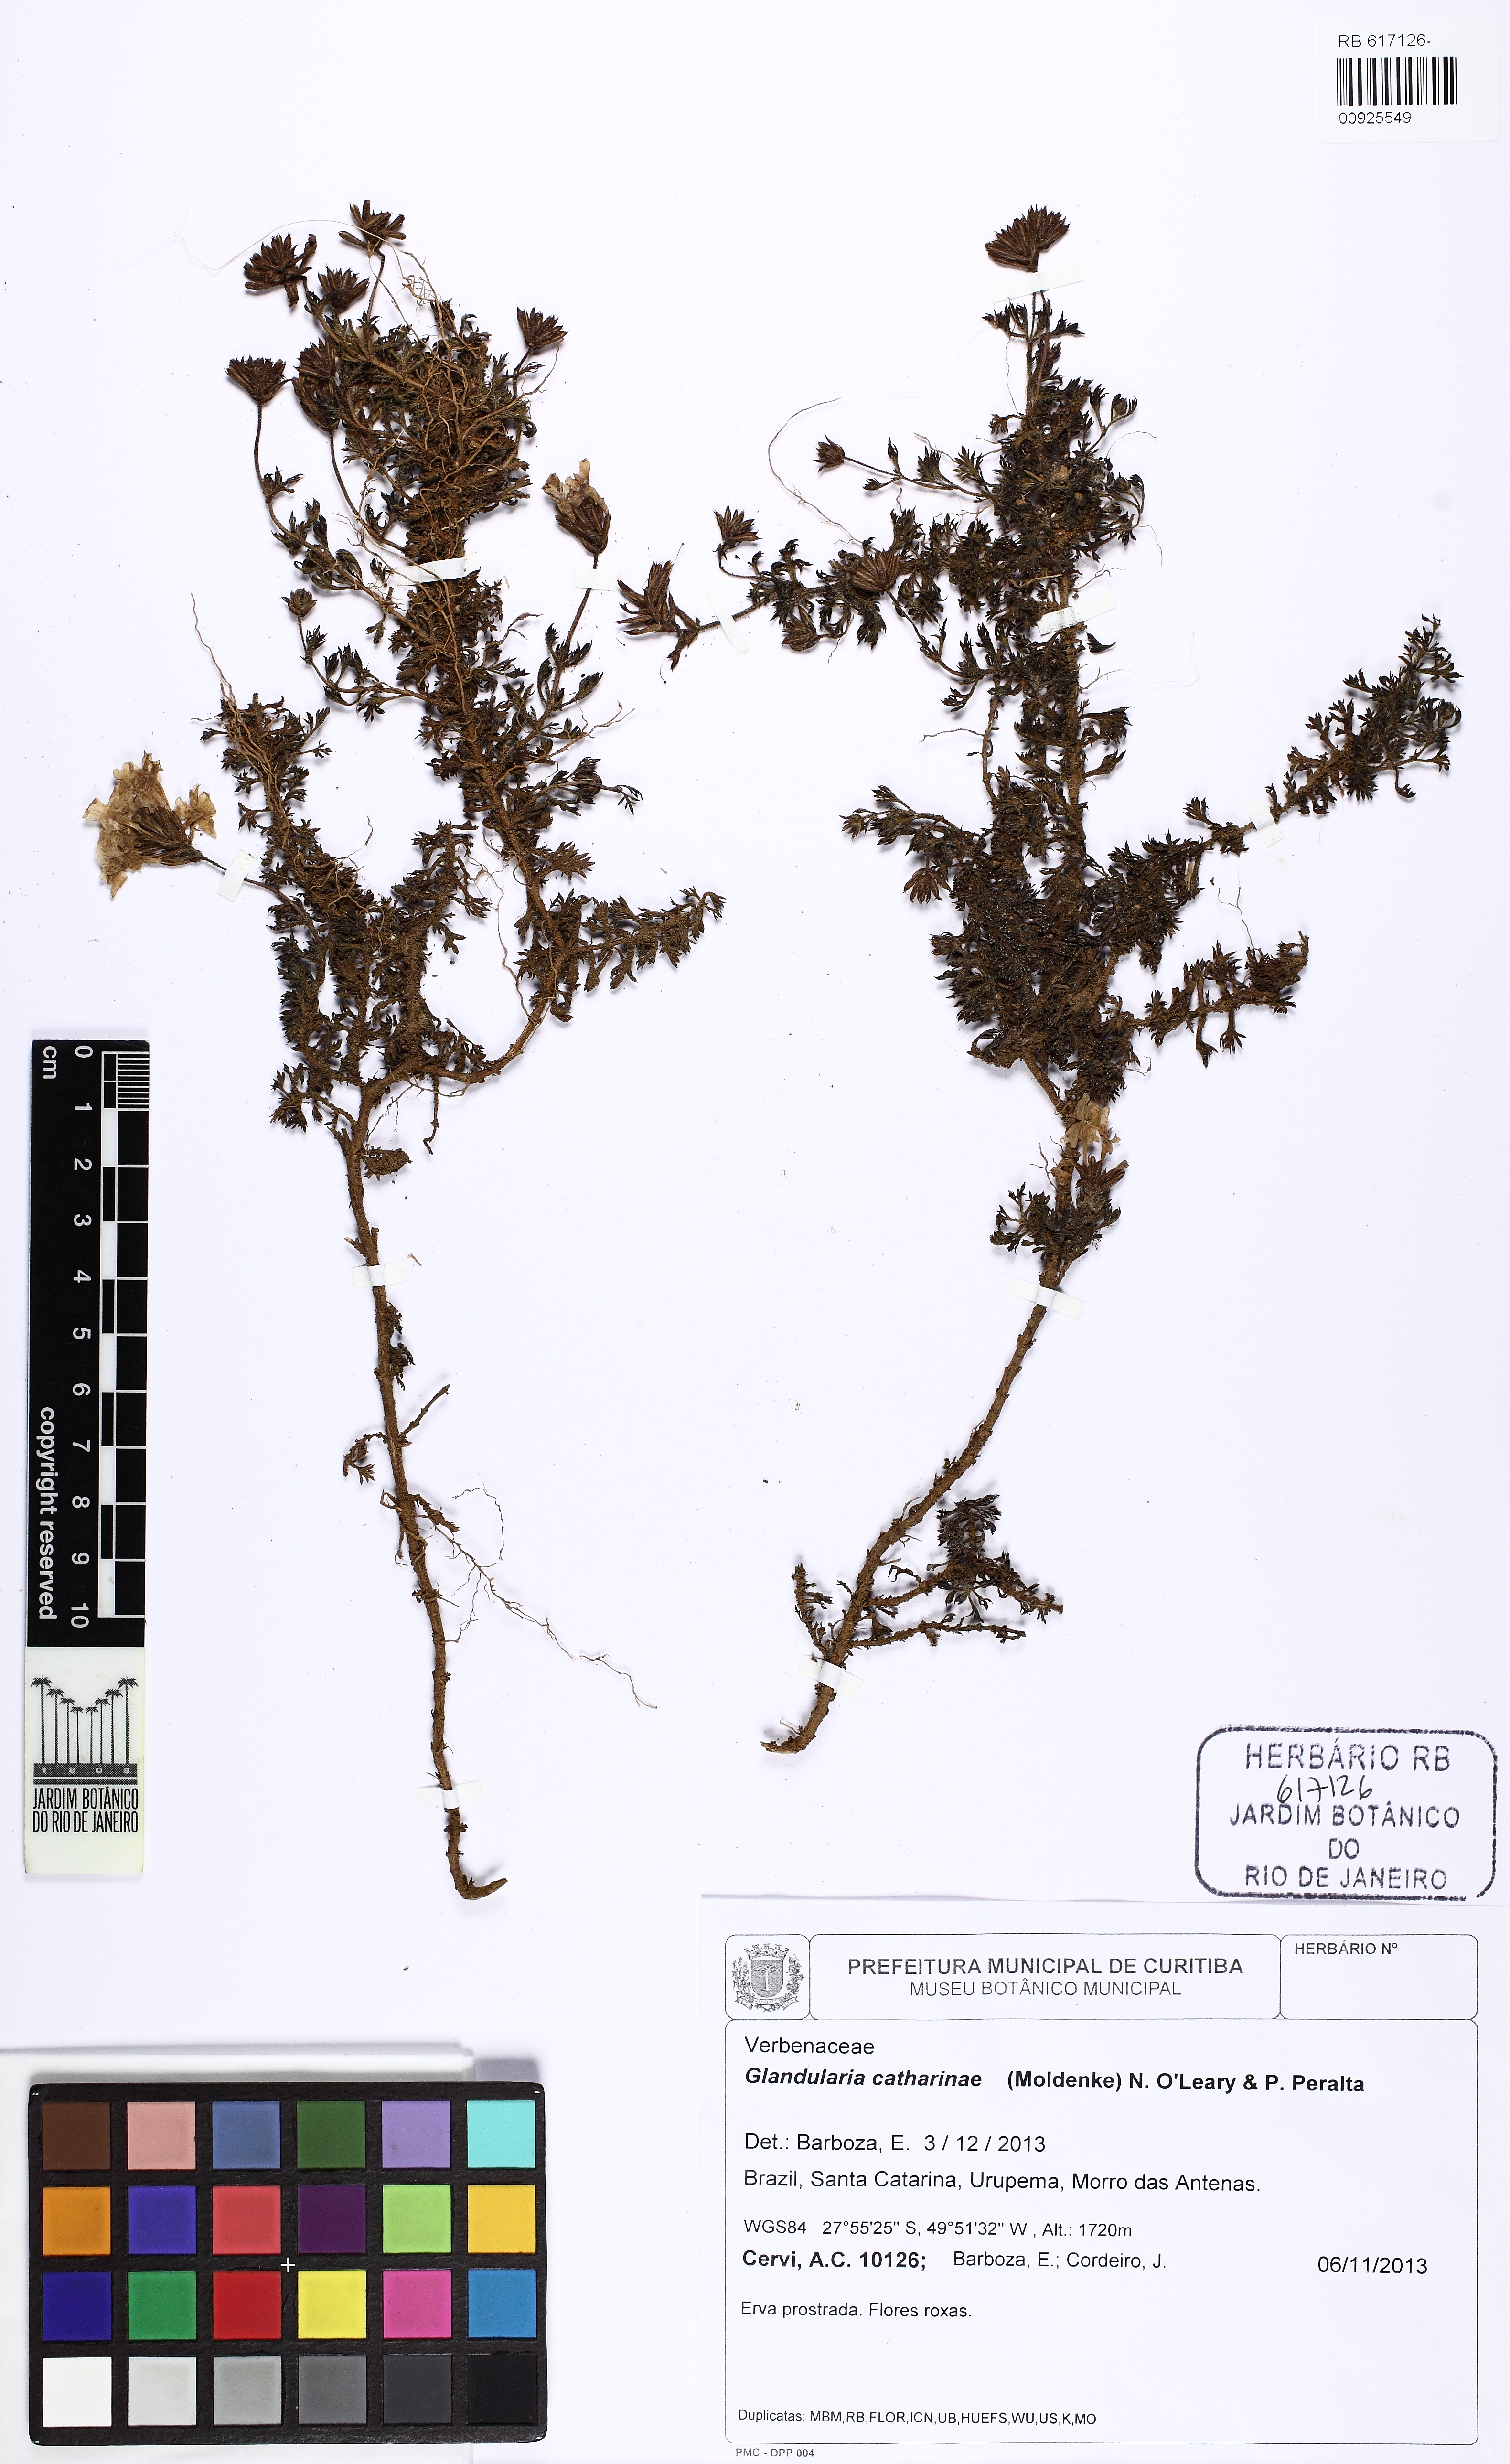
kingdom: Plantae
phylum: Tracheophyta
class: Magnoliopsida
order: Lamiales
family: Verbenaceae
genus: Verbena
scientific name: Verbena catharinae
